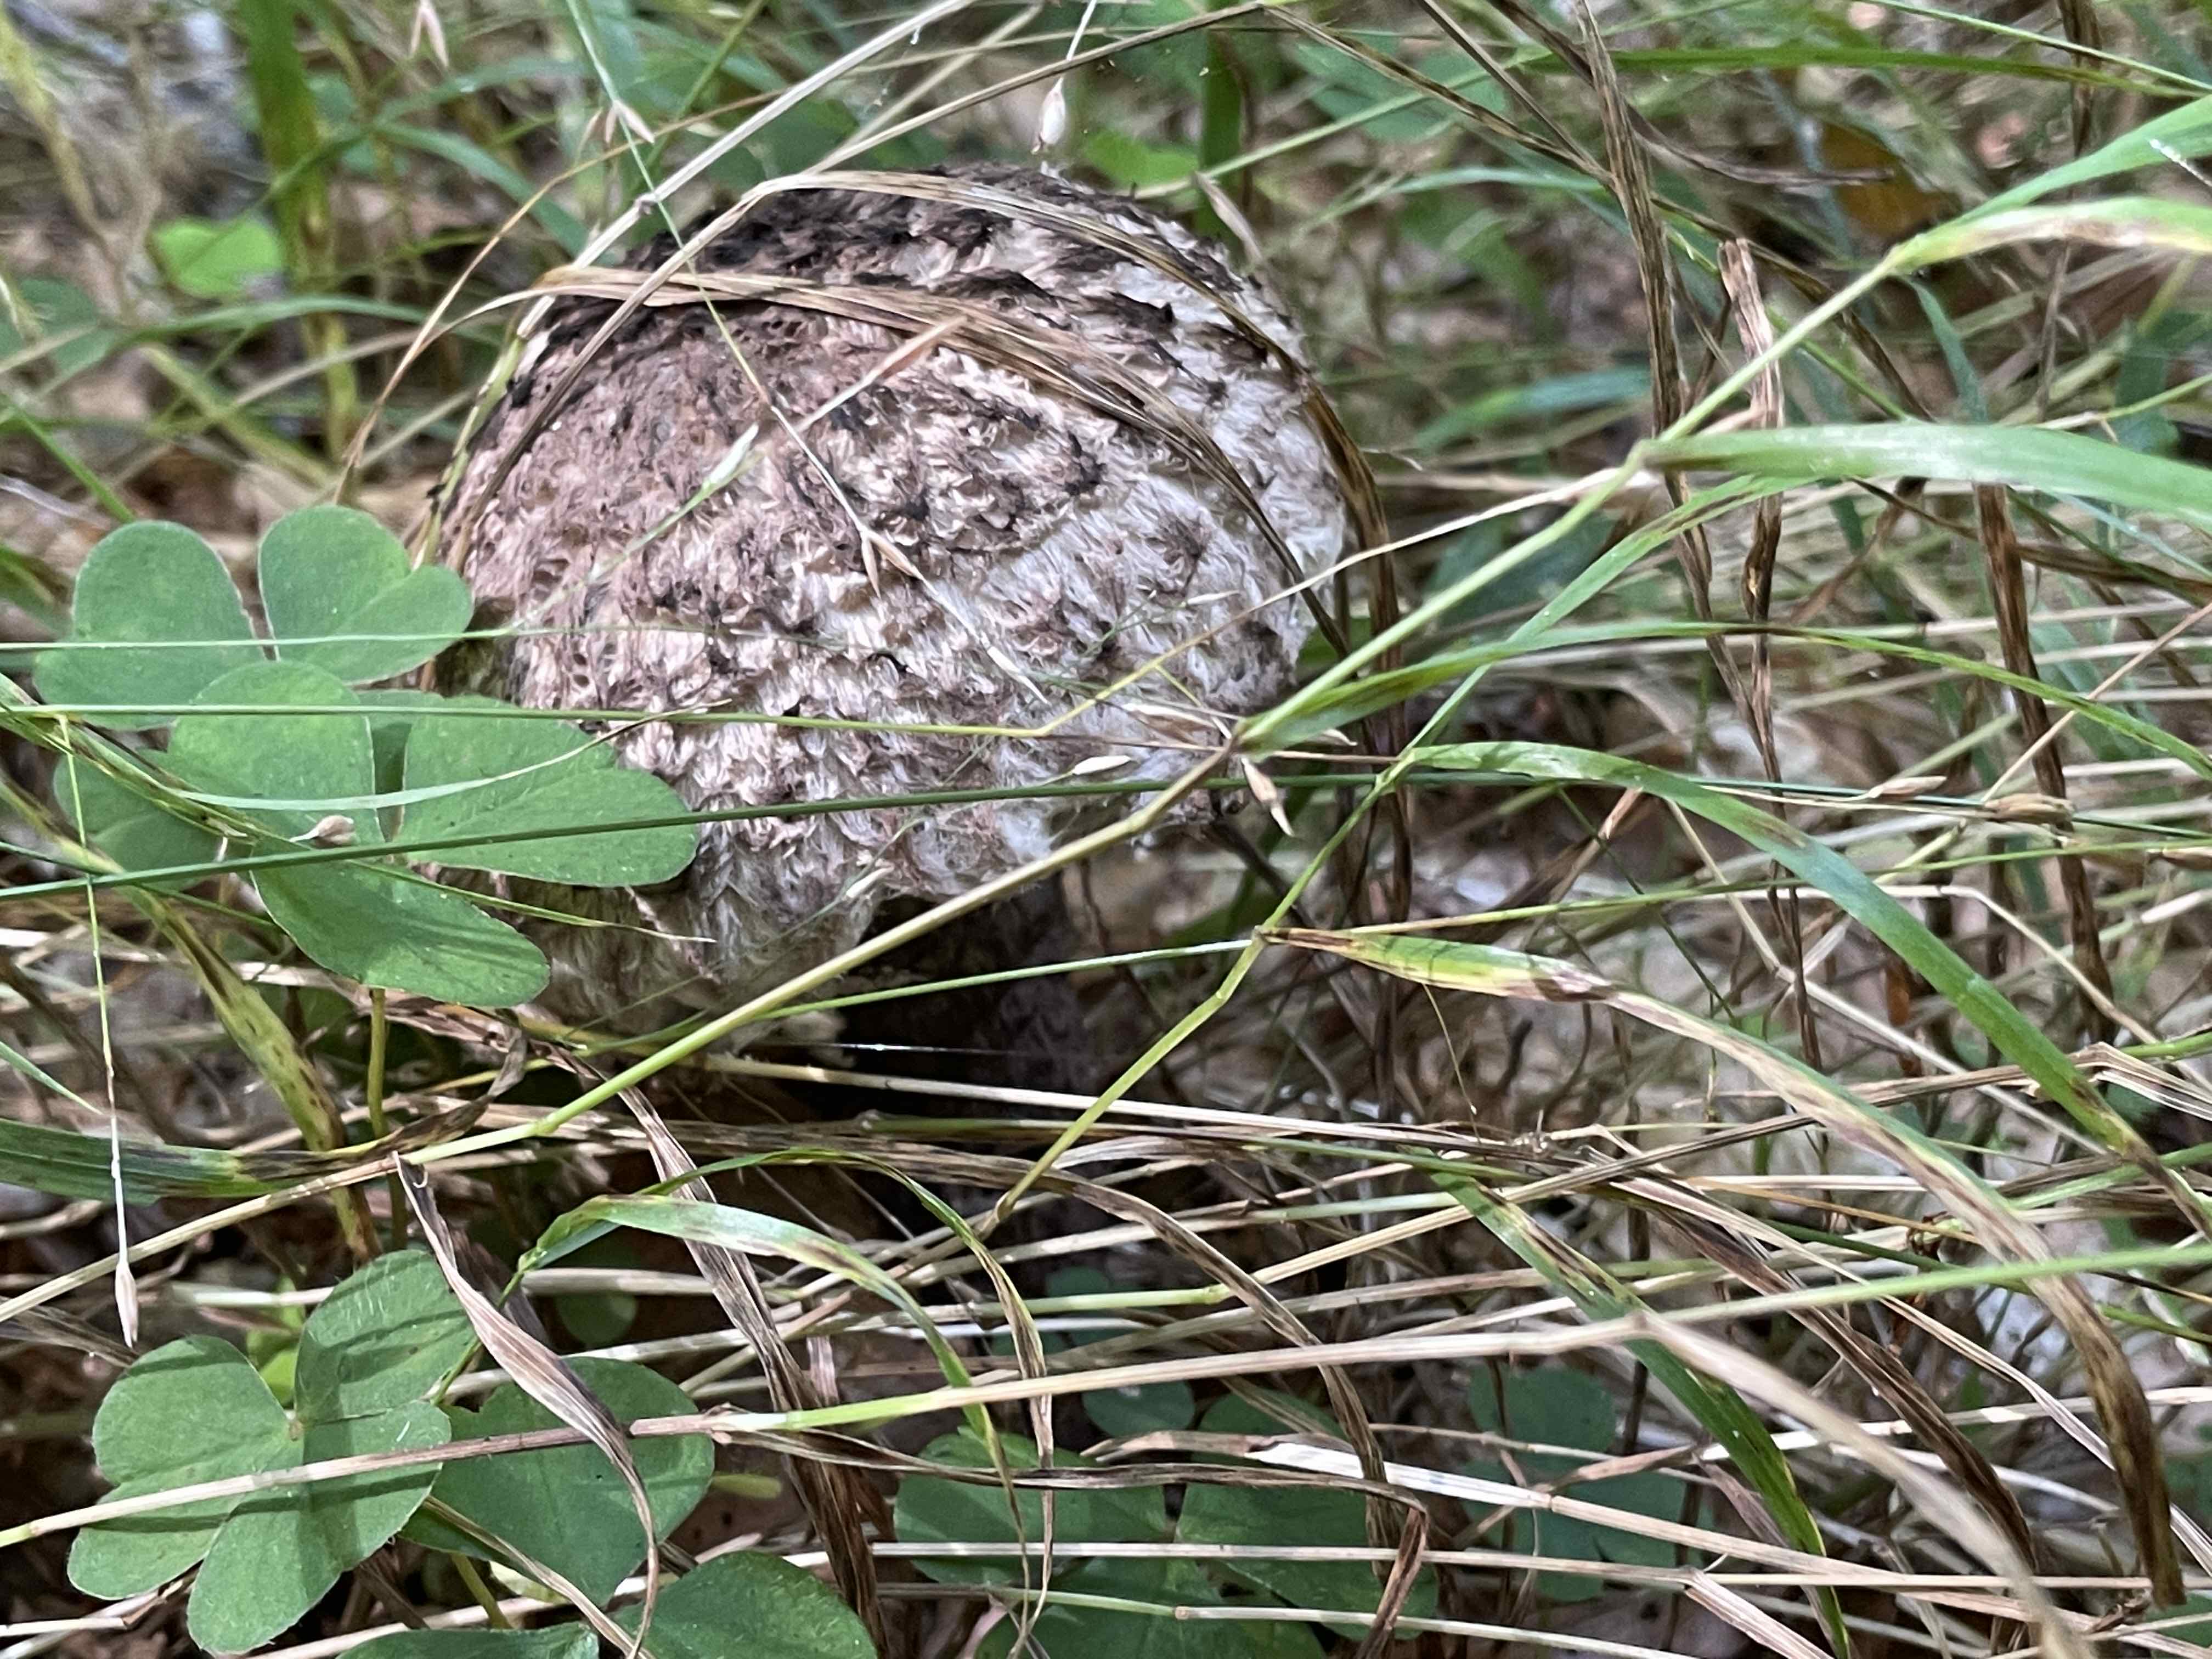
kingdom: Fungi
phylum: Basidiomycota
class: Agaricomycetes
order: Boletales
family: Boletaceae
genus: Strobilomyces
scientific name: Strobilomyces strobilaceus
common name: koglerørhat
